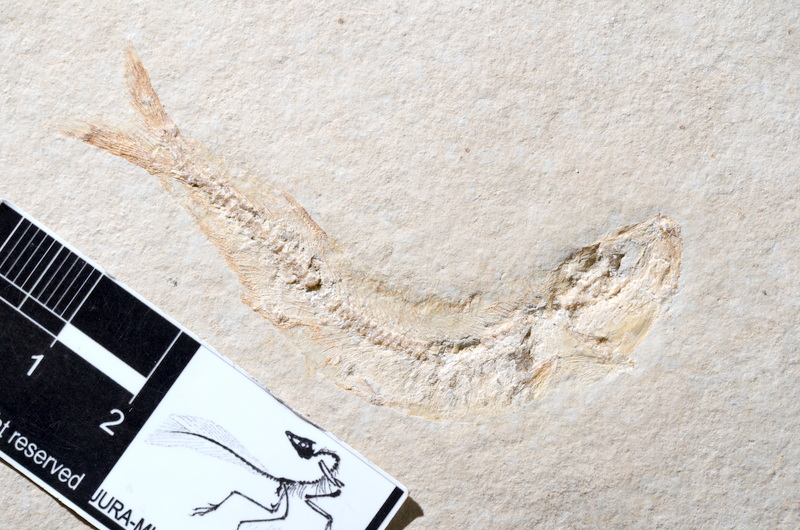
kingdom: Animalia
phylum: Chordata
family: Allothrissopidae
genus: Allothrissops
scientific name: Allothrissops
